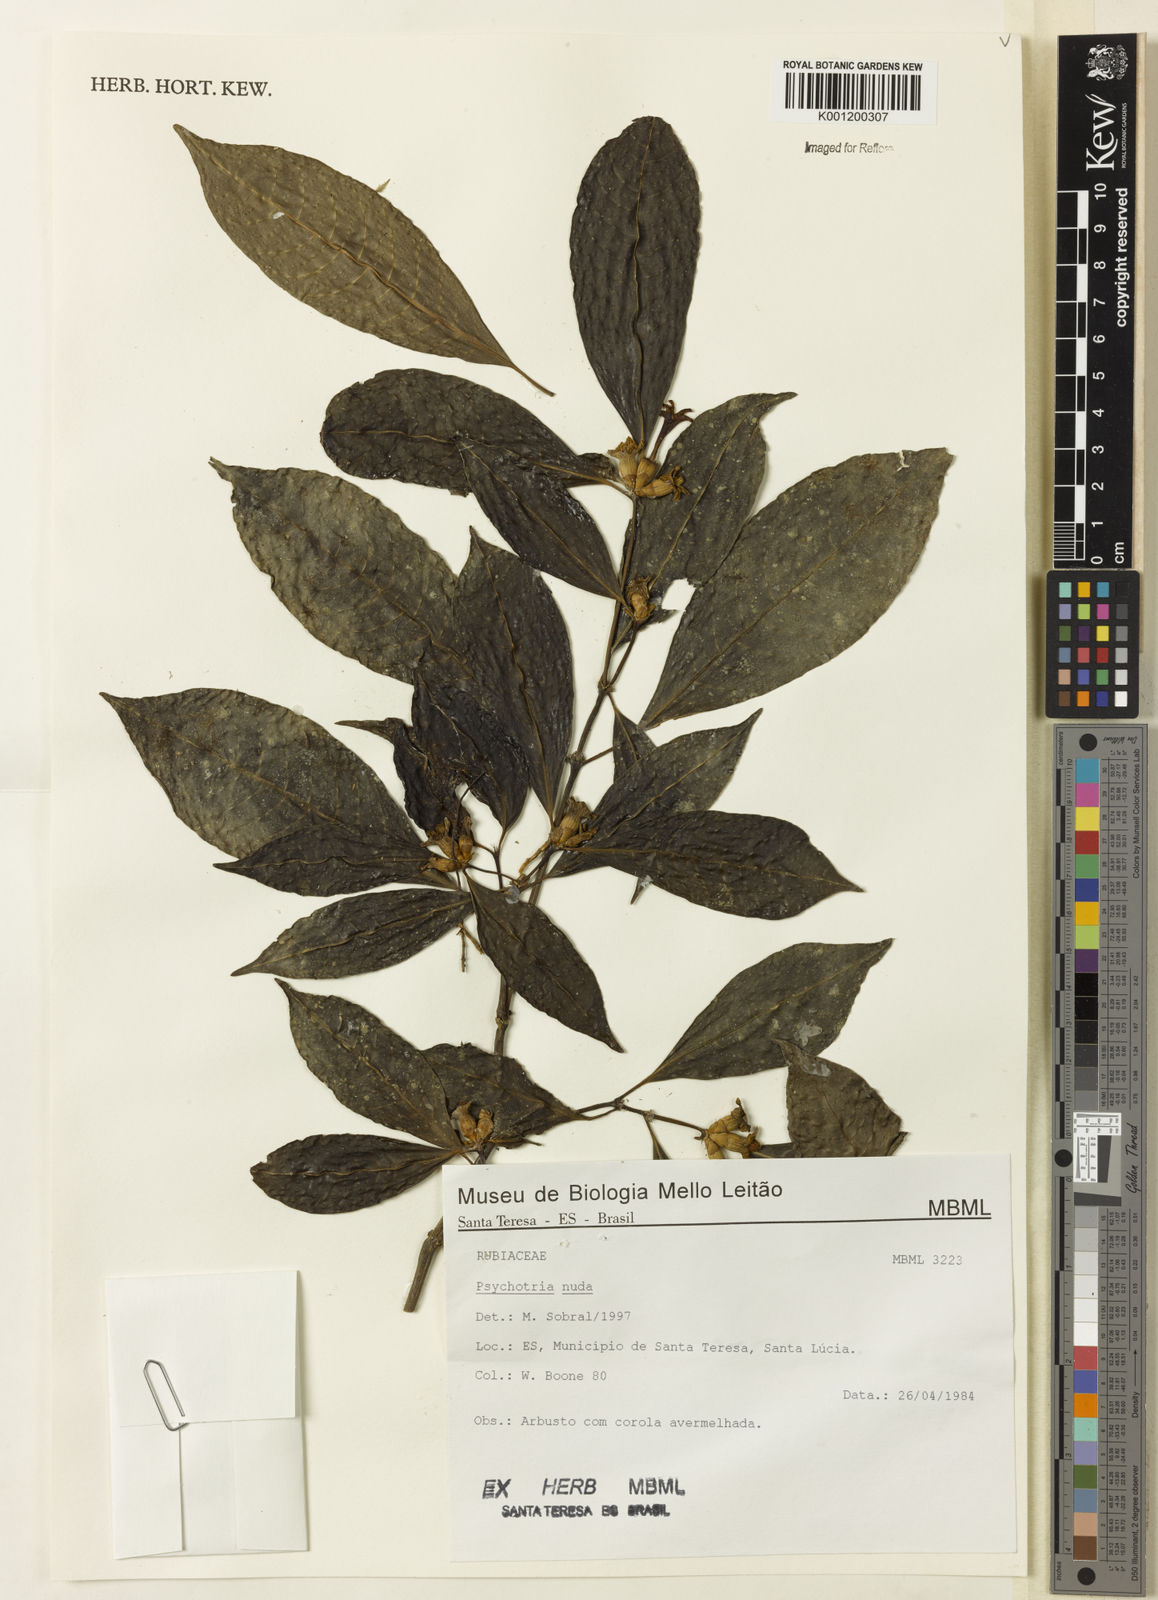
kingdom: Plantae
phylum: Tracheophyta
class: Magnoliopsida
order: Gentianales
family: Rubiaceae
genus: Psychotria
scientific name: Psychotria nuda
